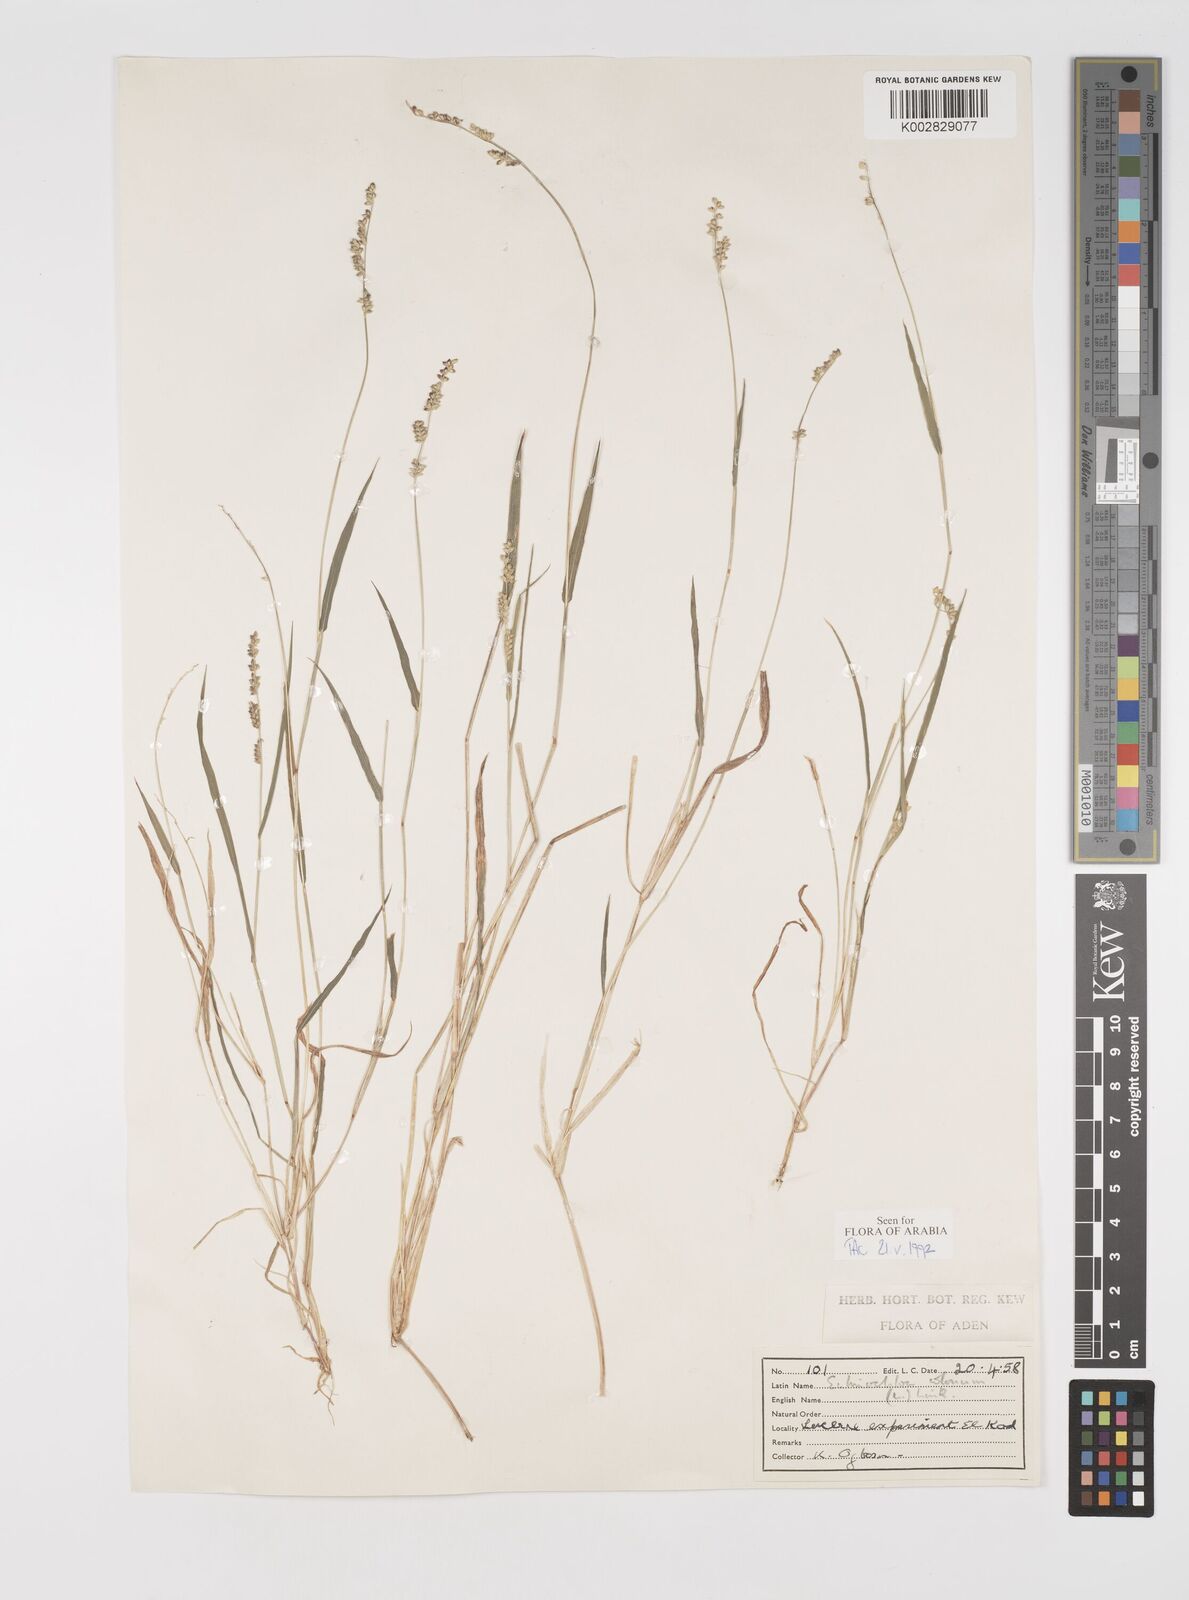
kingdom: Plantae
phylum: Tracheophyta
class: Liliopsida
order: Poales
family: Poaceae
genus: Echinochloa
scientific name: Echinochloa colonum
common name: Jungle rice
